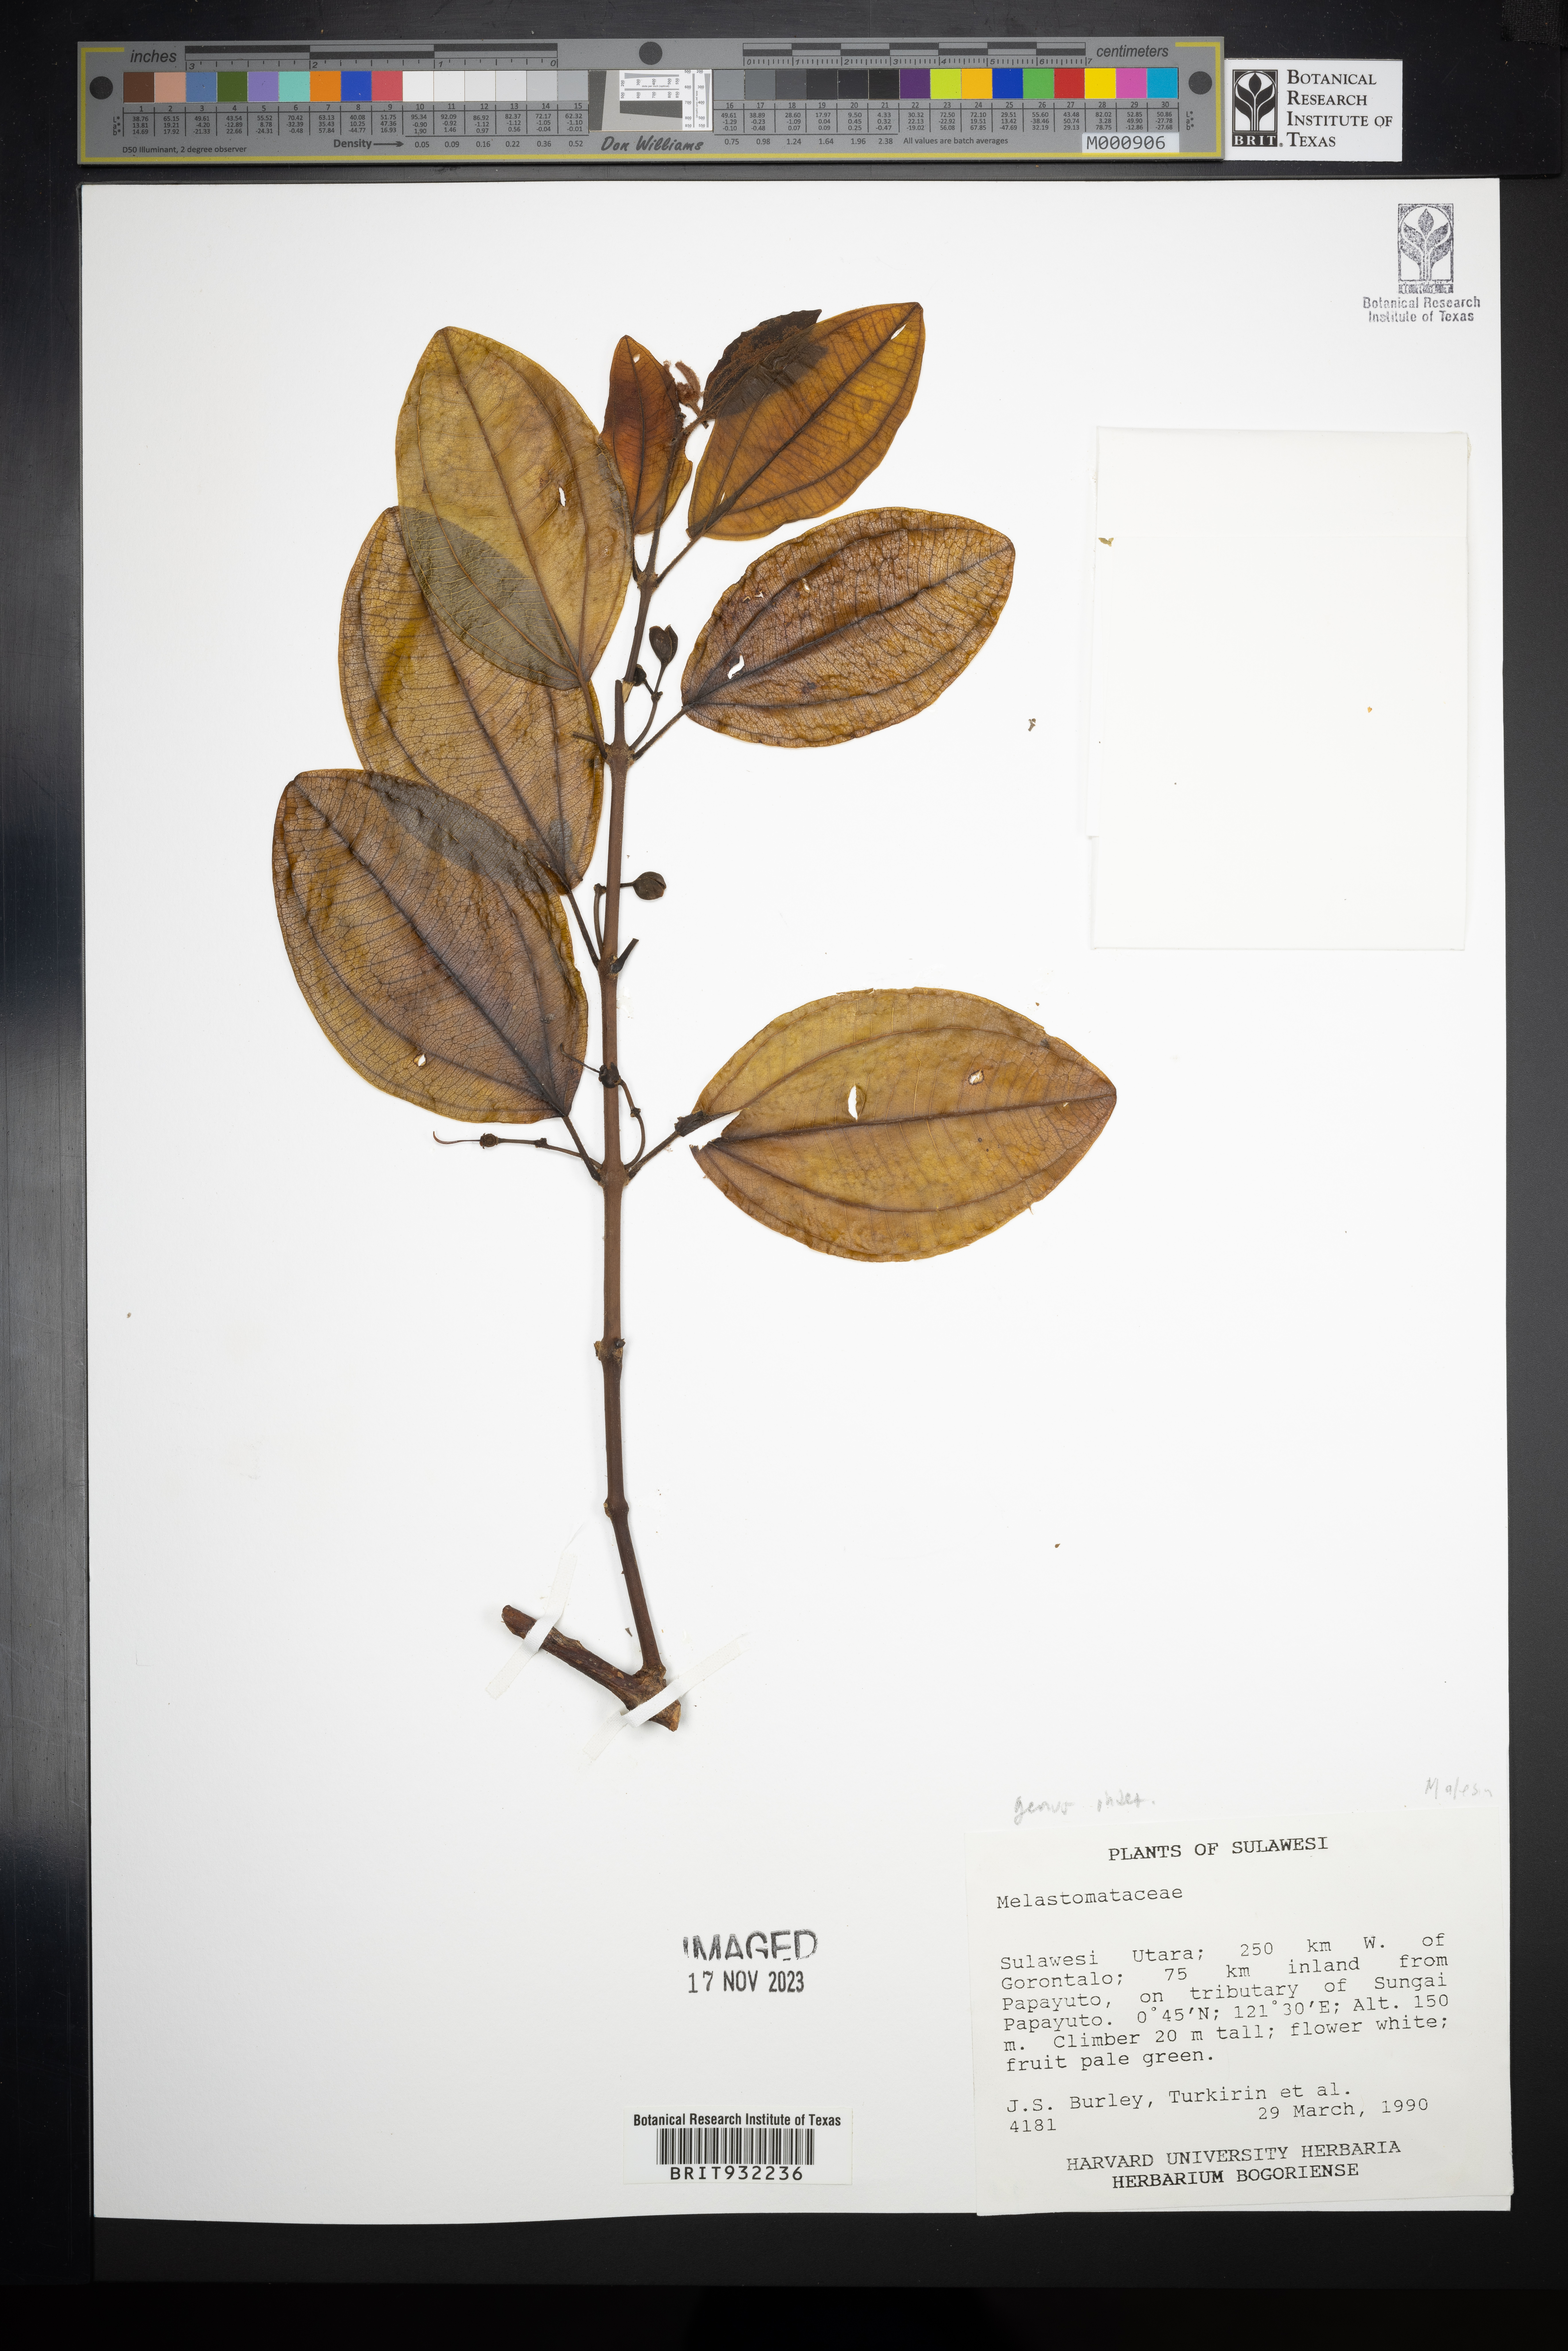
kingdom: Plantae
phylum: Tracheophyta
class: Magnoliopsida
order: Myrtales
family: Melastomataceae
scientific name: Melastomataceae
